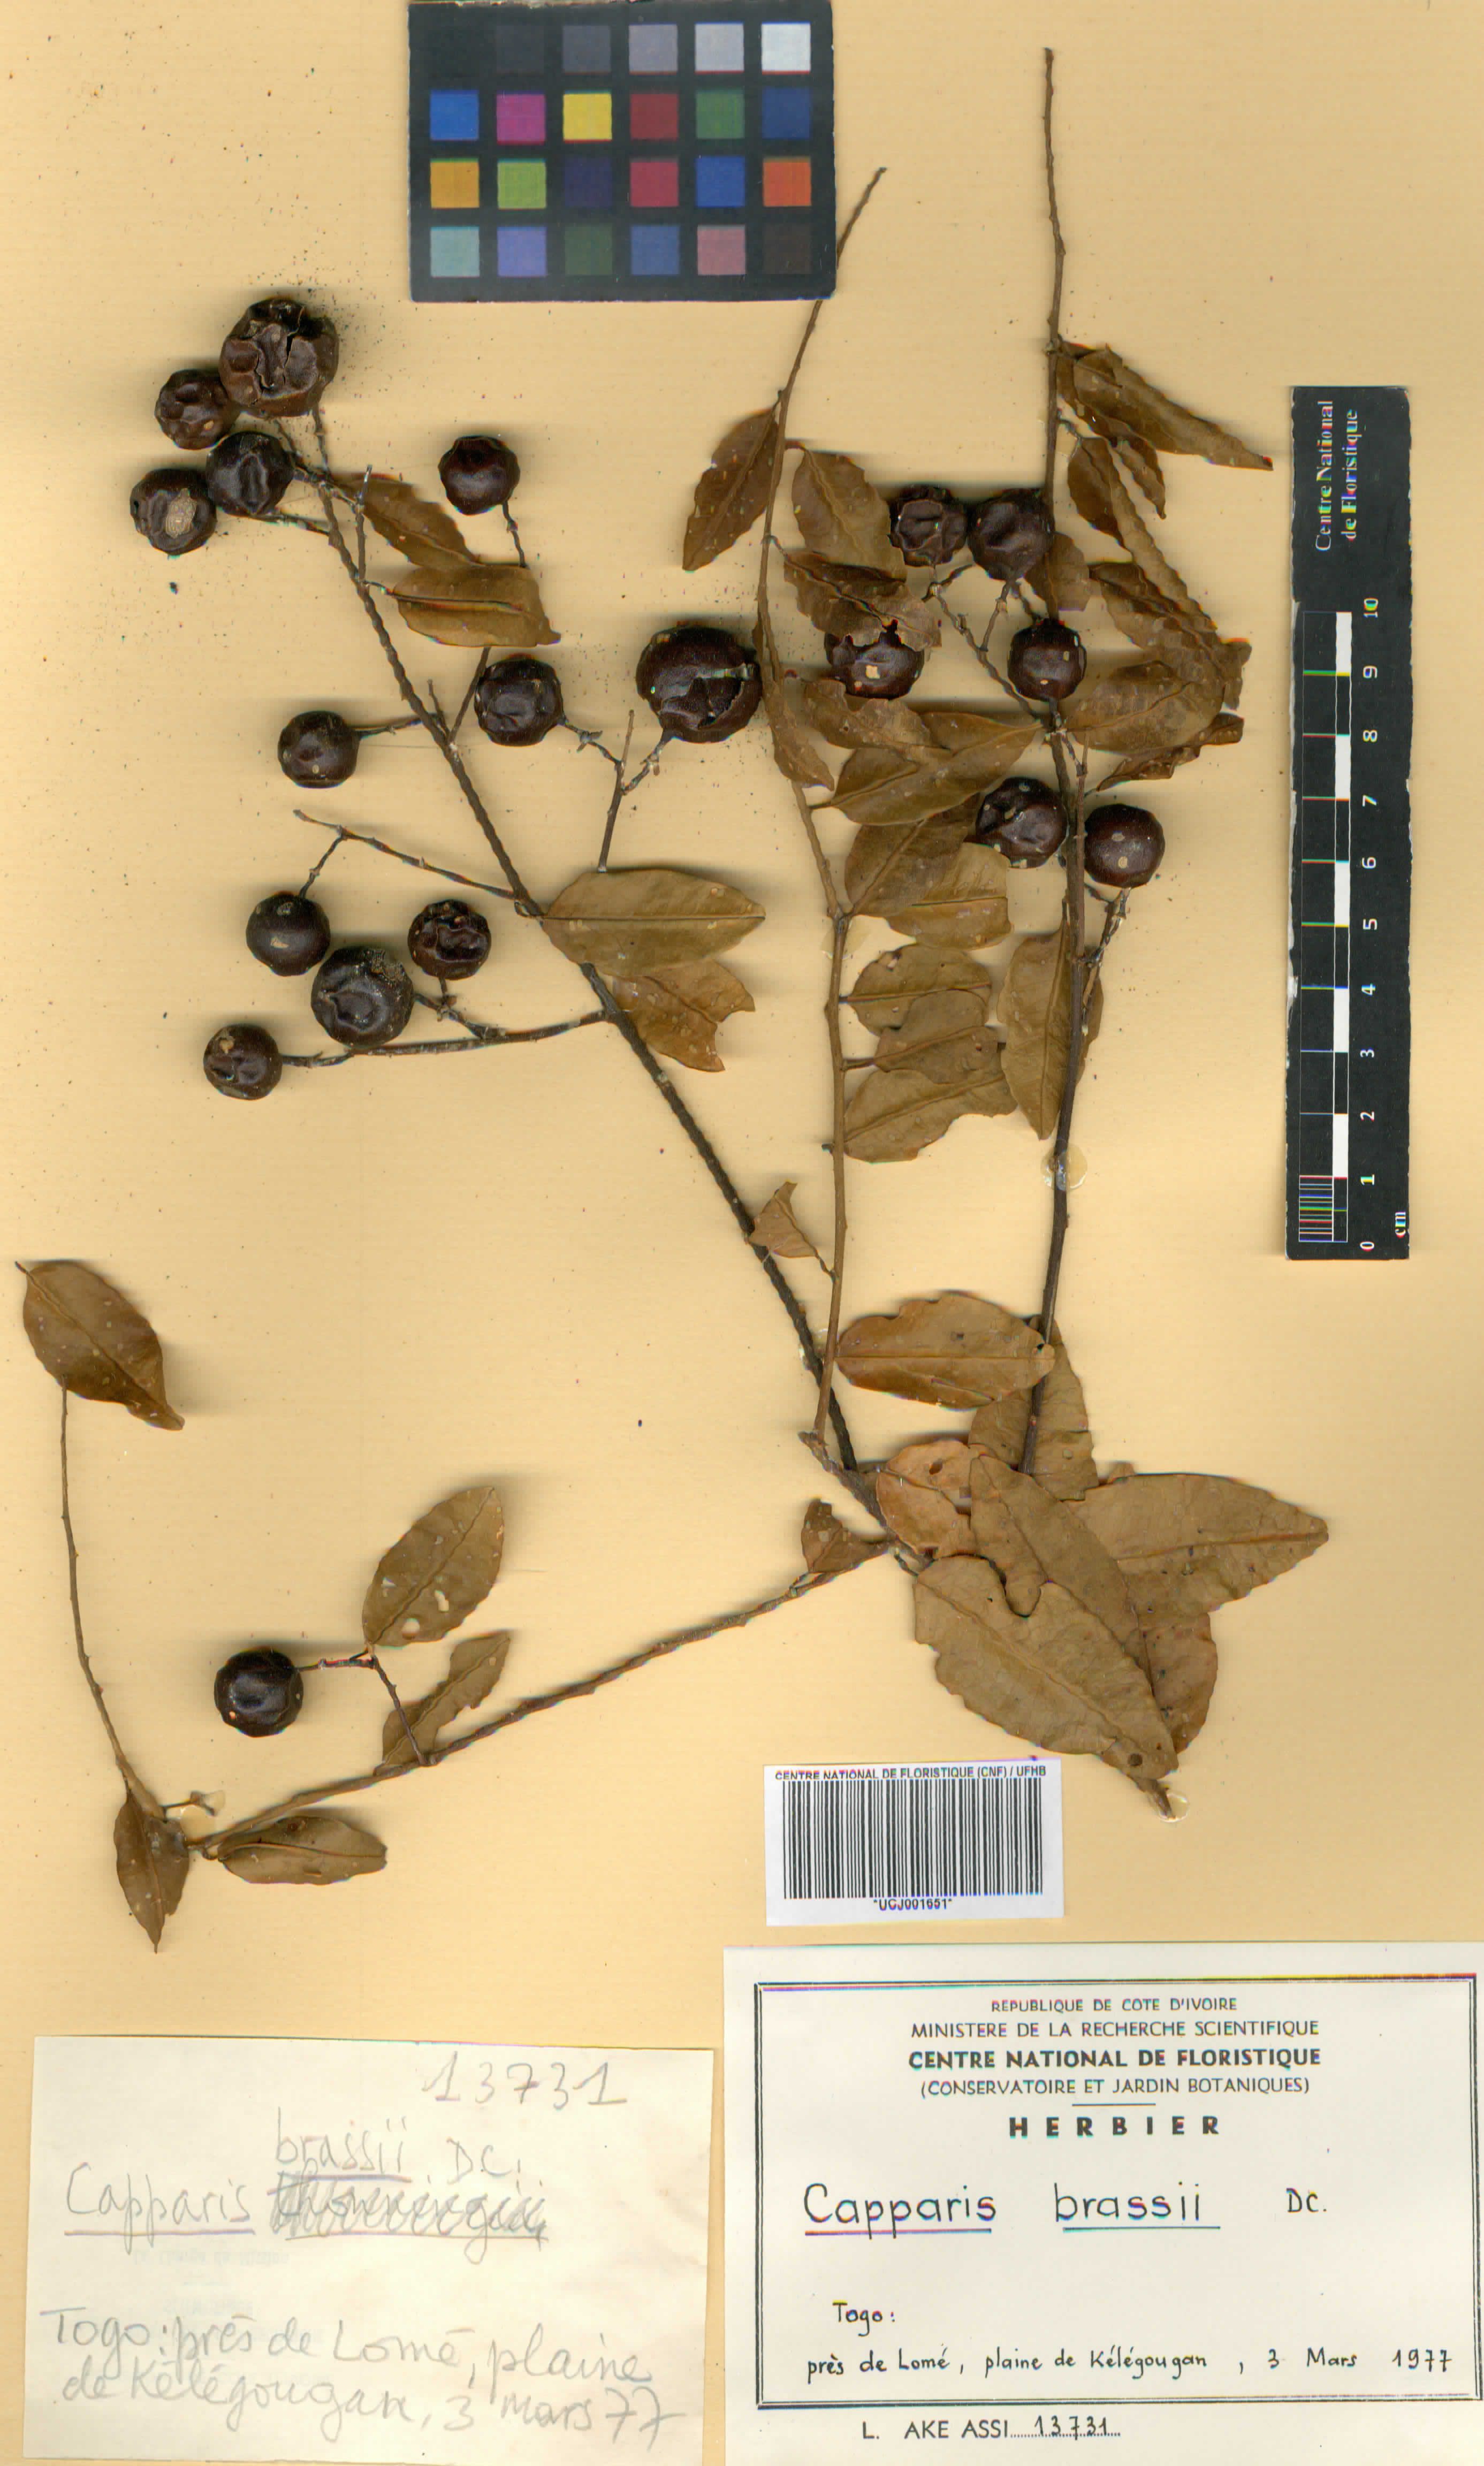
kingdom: Plantae
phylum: Tracheophyta
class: Magnoliopsida
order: Brassicales
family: Capparaceae
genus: Capparis
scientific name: Capparis brassii
